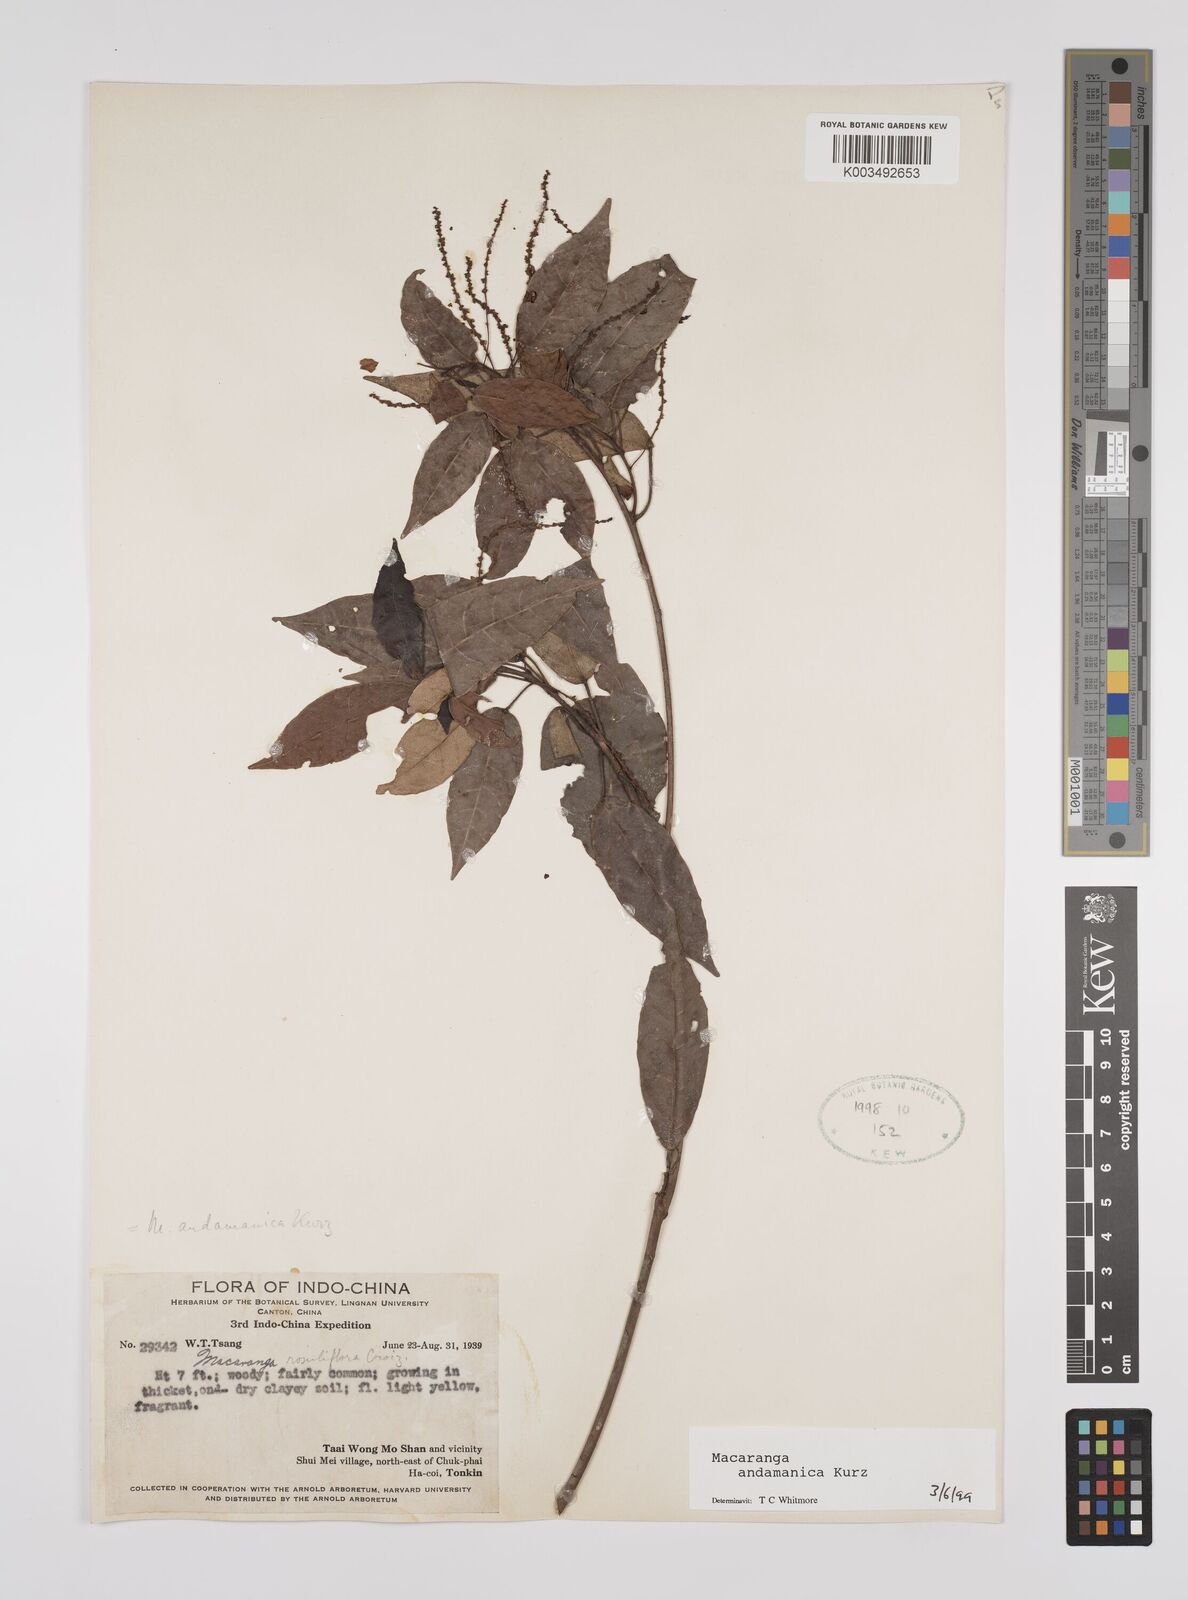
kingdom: Plantae
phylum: Tracheophyta
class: Magnoliopsida
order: Malpighiales
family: Euphorbiaceae
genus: Macaranga
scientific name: Macaranga andamanica
